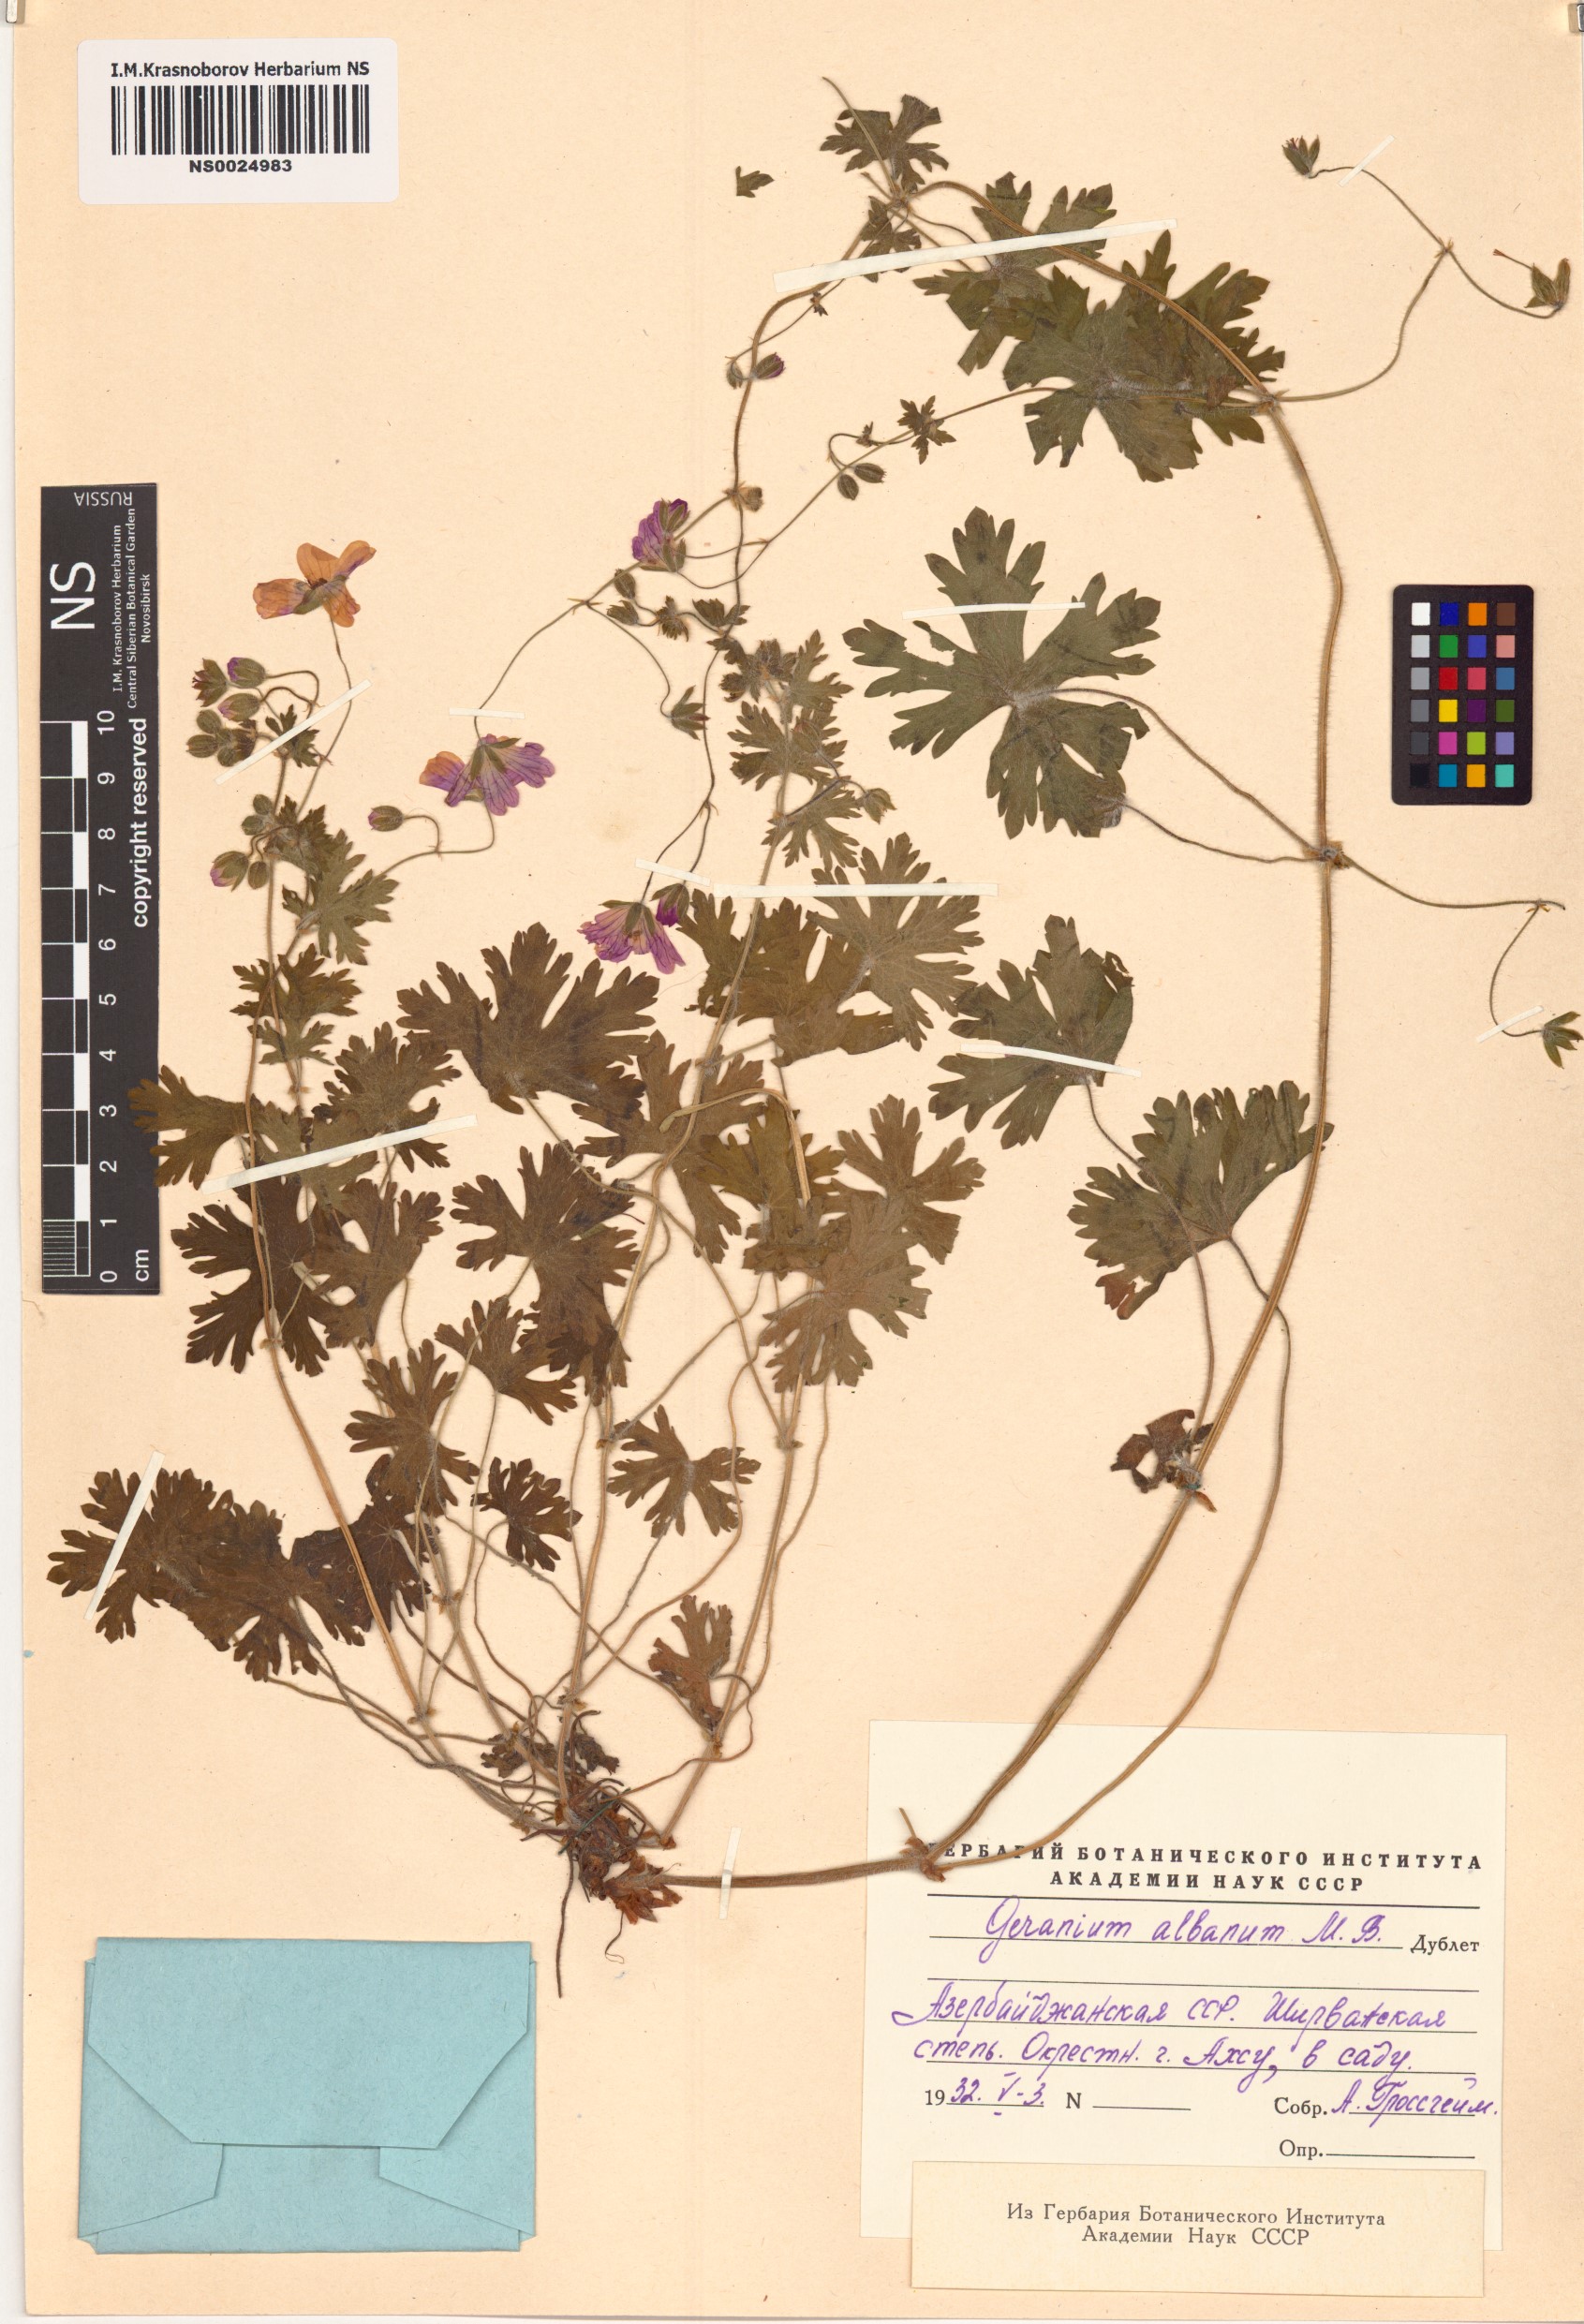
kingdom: Plantae
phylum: Tracheophyta
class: Magnoliopsida
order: Geraniales
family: Geraniaceae
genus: Geranium
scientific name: Geranium albanum
